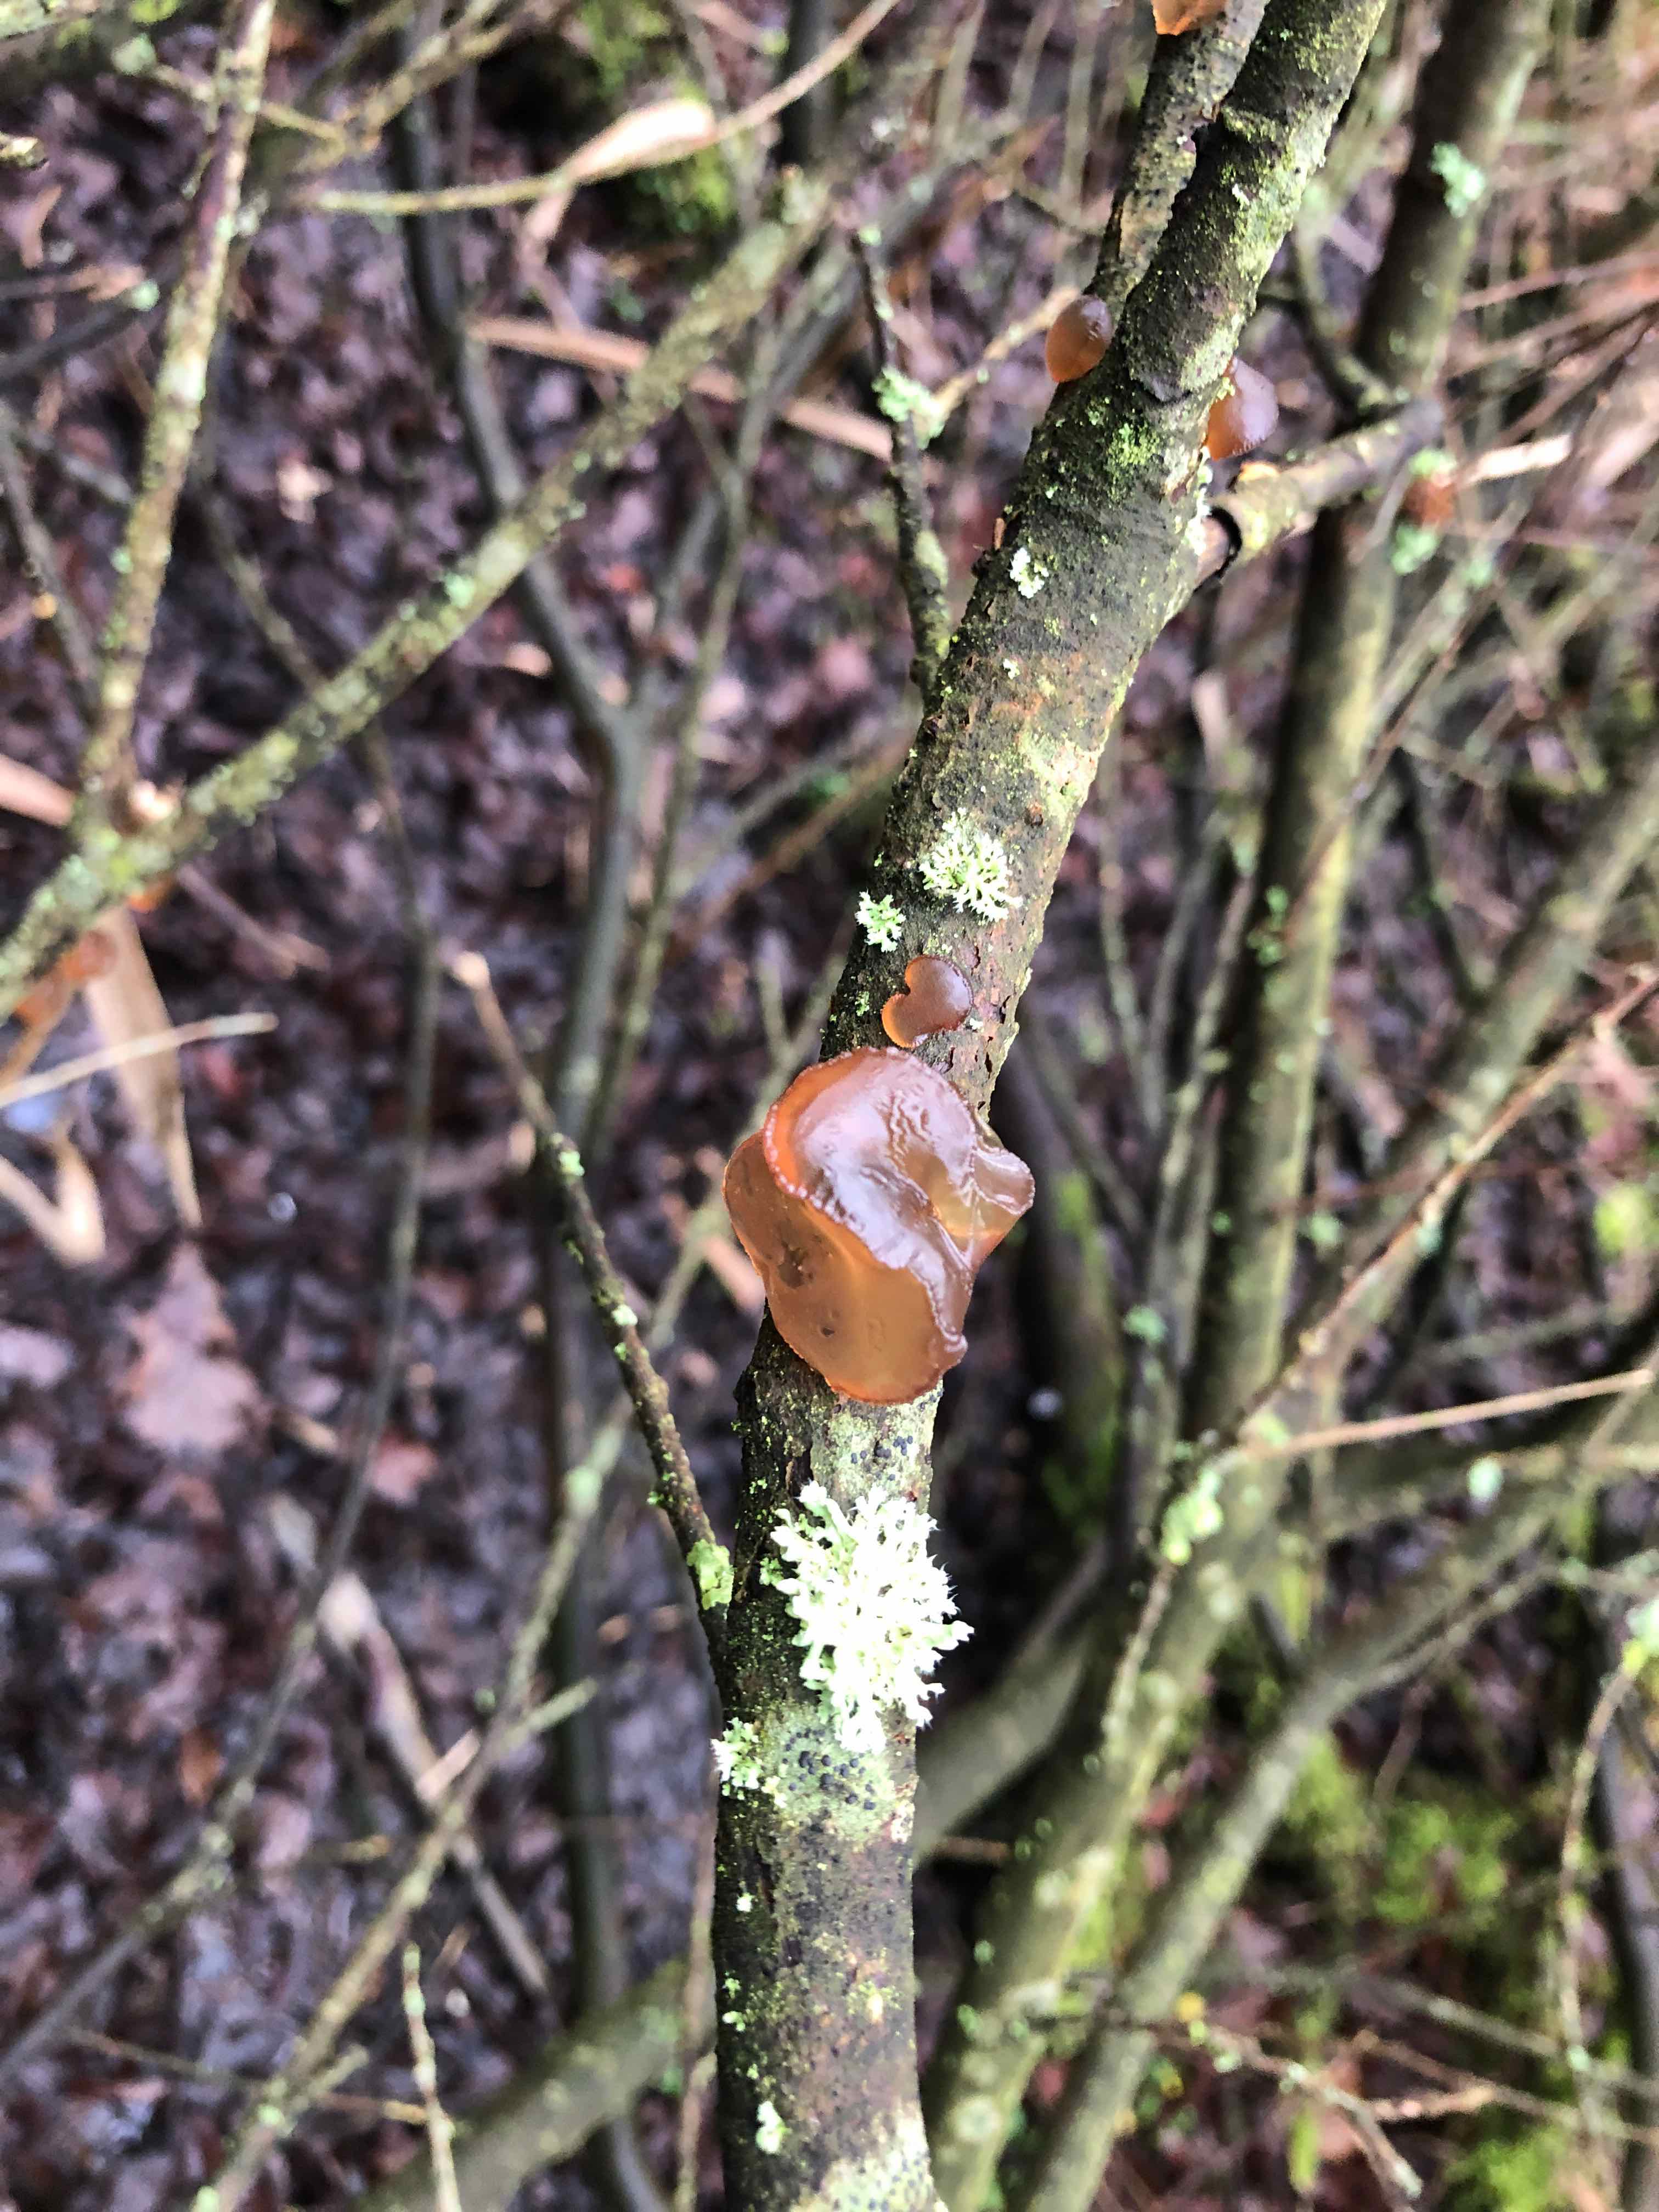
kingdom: Fungi
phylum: Basidiomycota
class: Agaricomycetes
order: Auriculariales
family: Auriculariaceae
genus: Exidia
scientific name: Exidia recisa
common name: pile-bævretop
